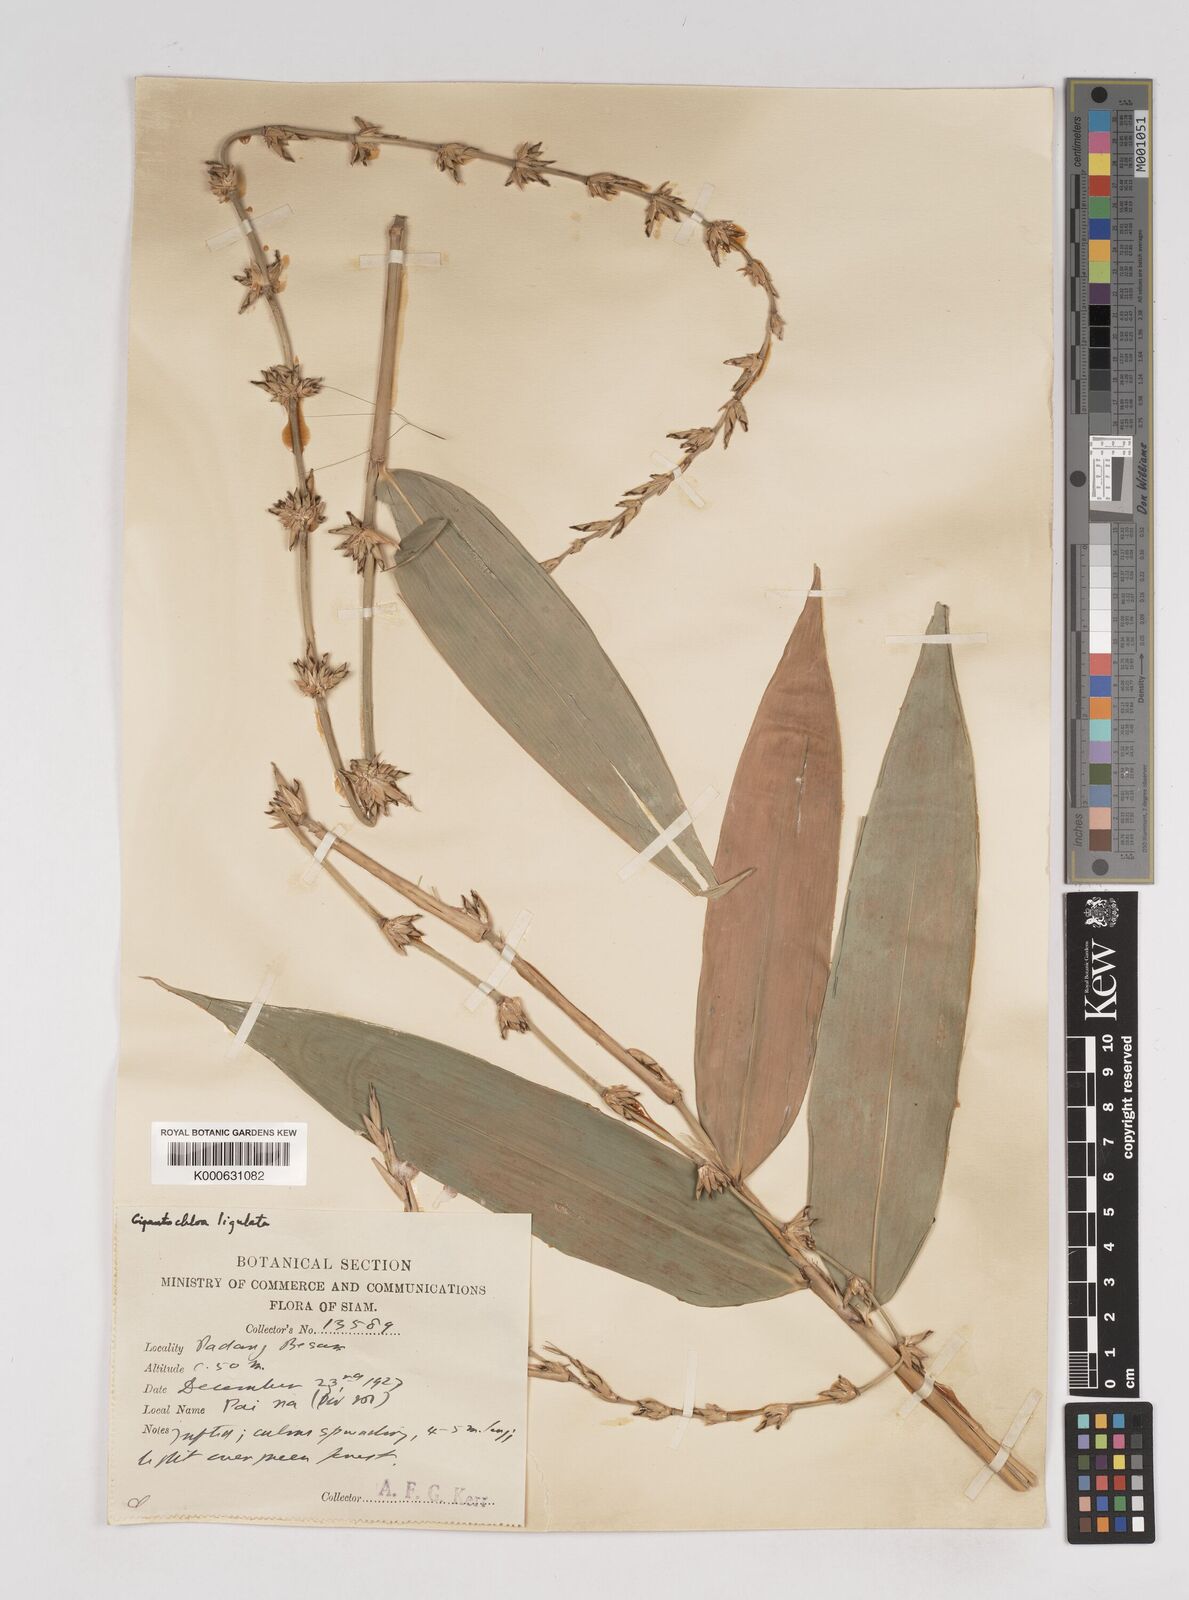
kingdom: Plantae
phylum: Tracheophyta
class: Liliopsida
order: Poales
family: Poaceae
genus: Gigantochloa
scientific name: Gigantochloa ligulata
